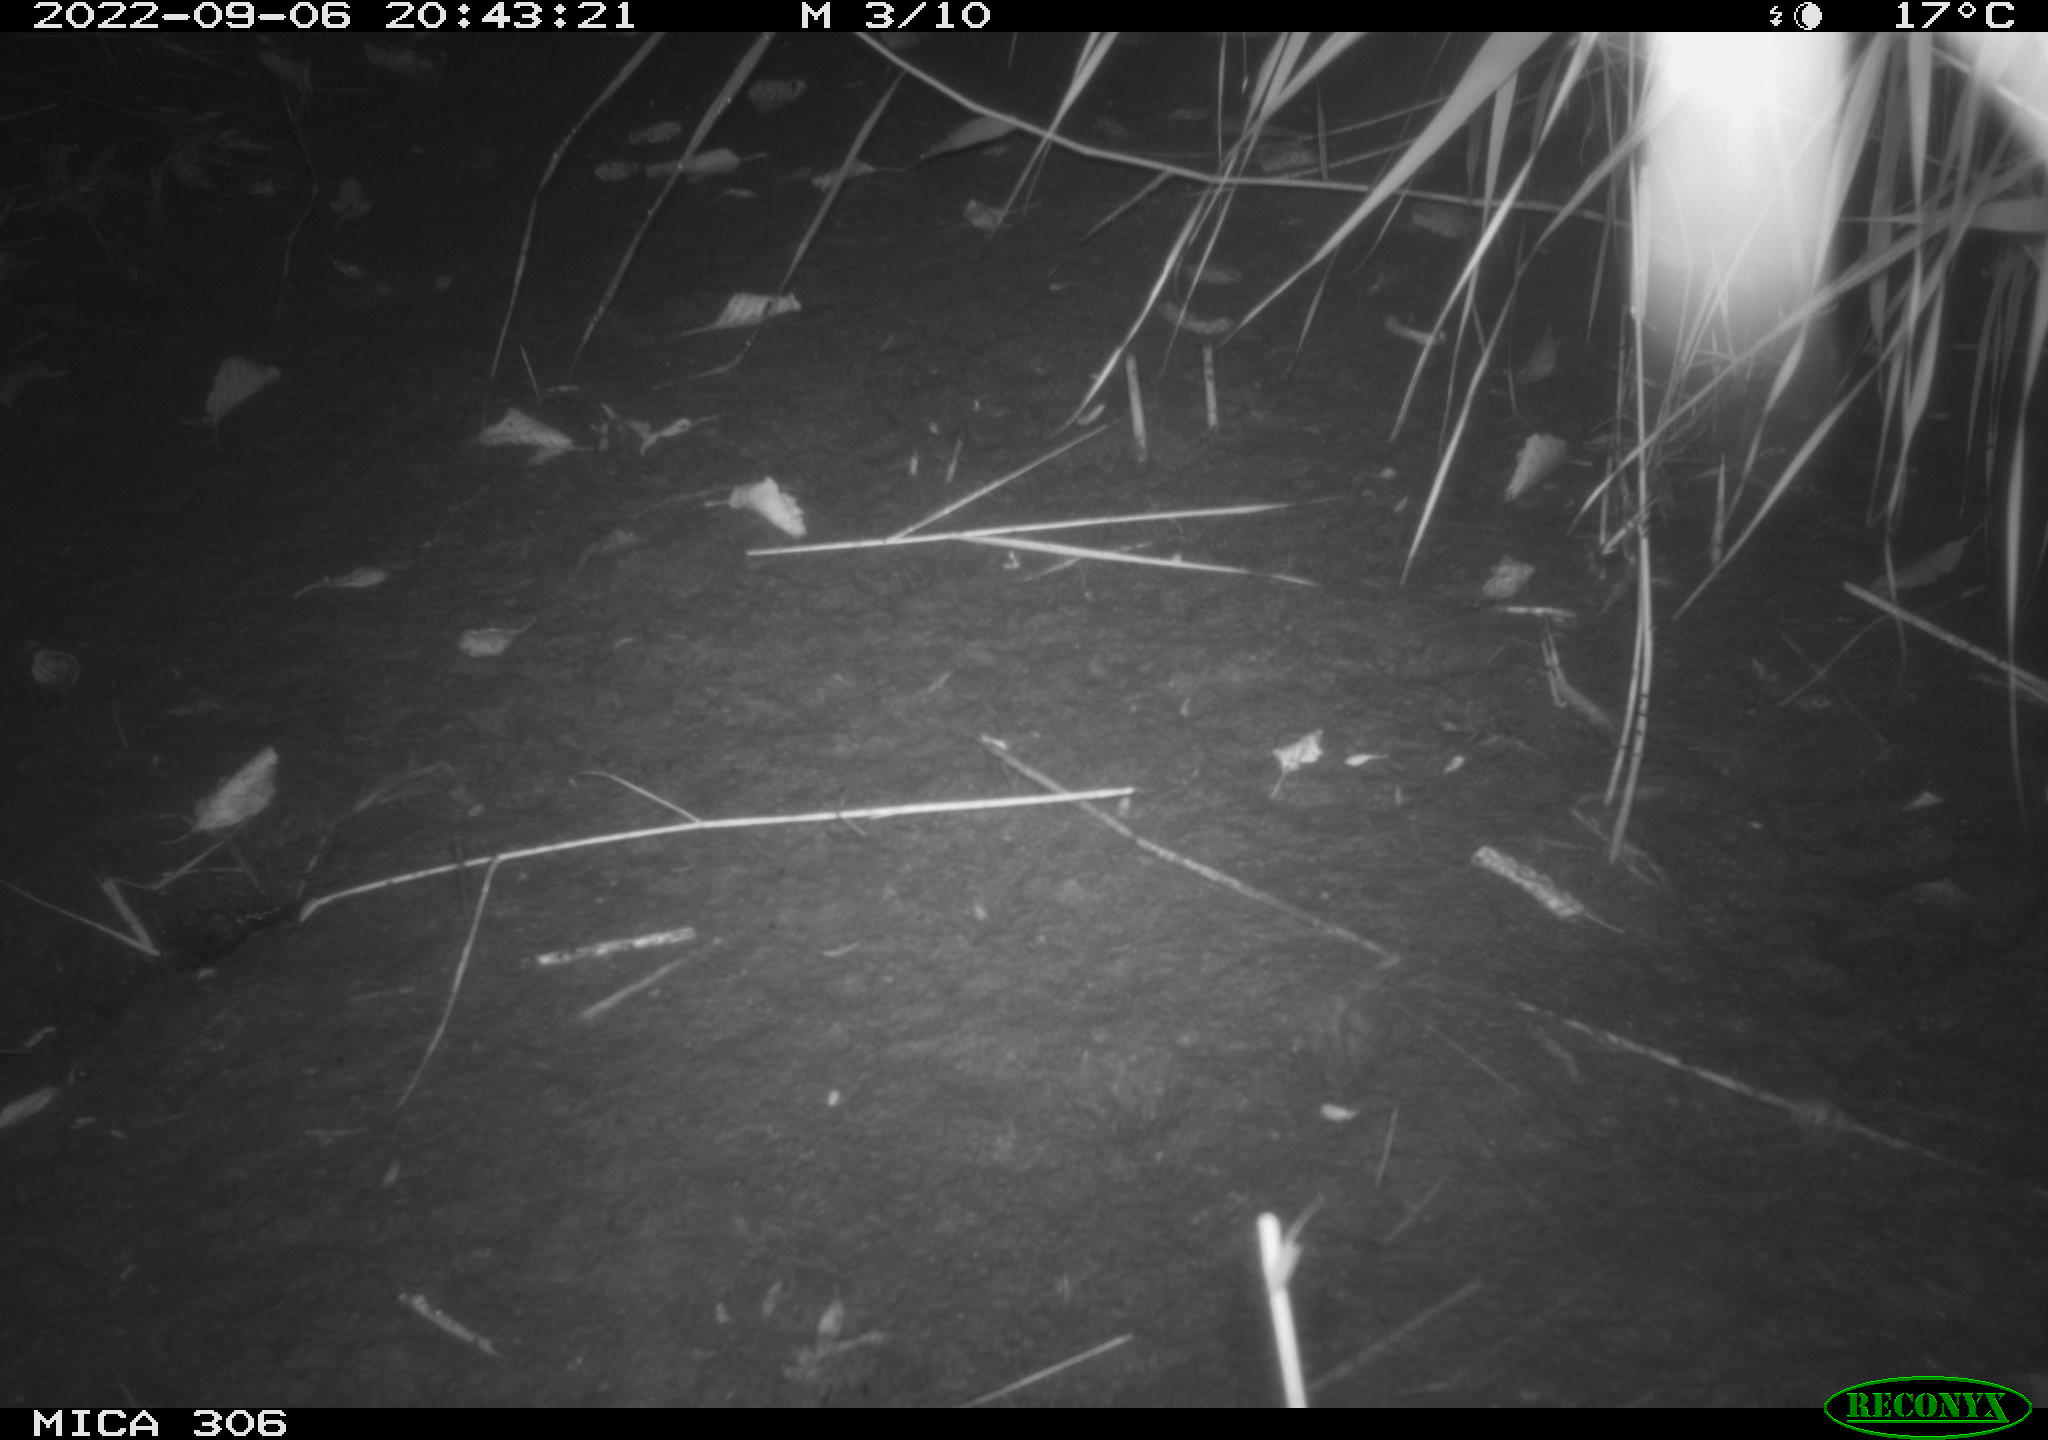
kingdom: Animalia
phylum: Chordata
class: Mammalia
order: Rodentia
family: Muridae
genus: Rattus
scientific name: Rattus norvegicus
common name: Brown rat
